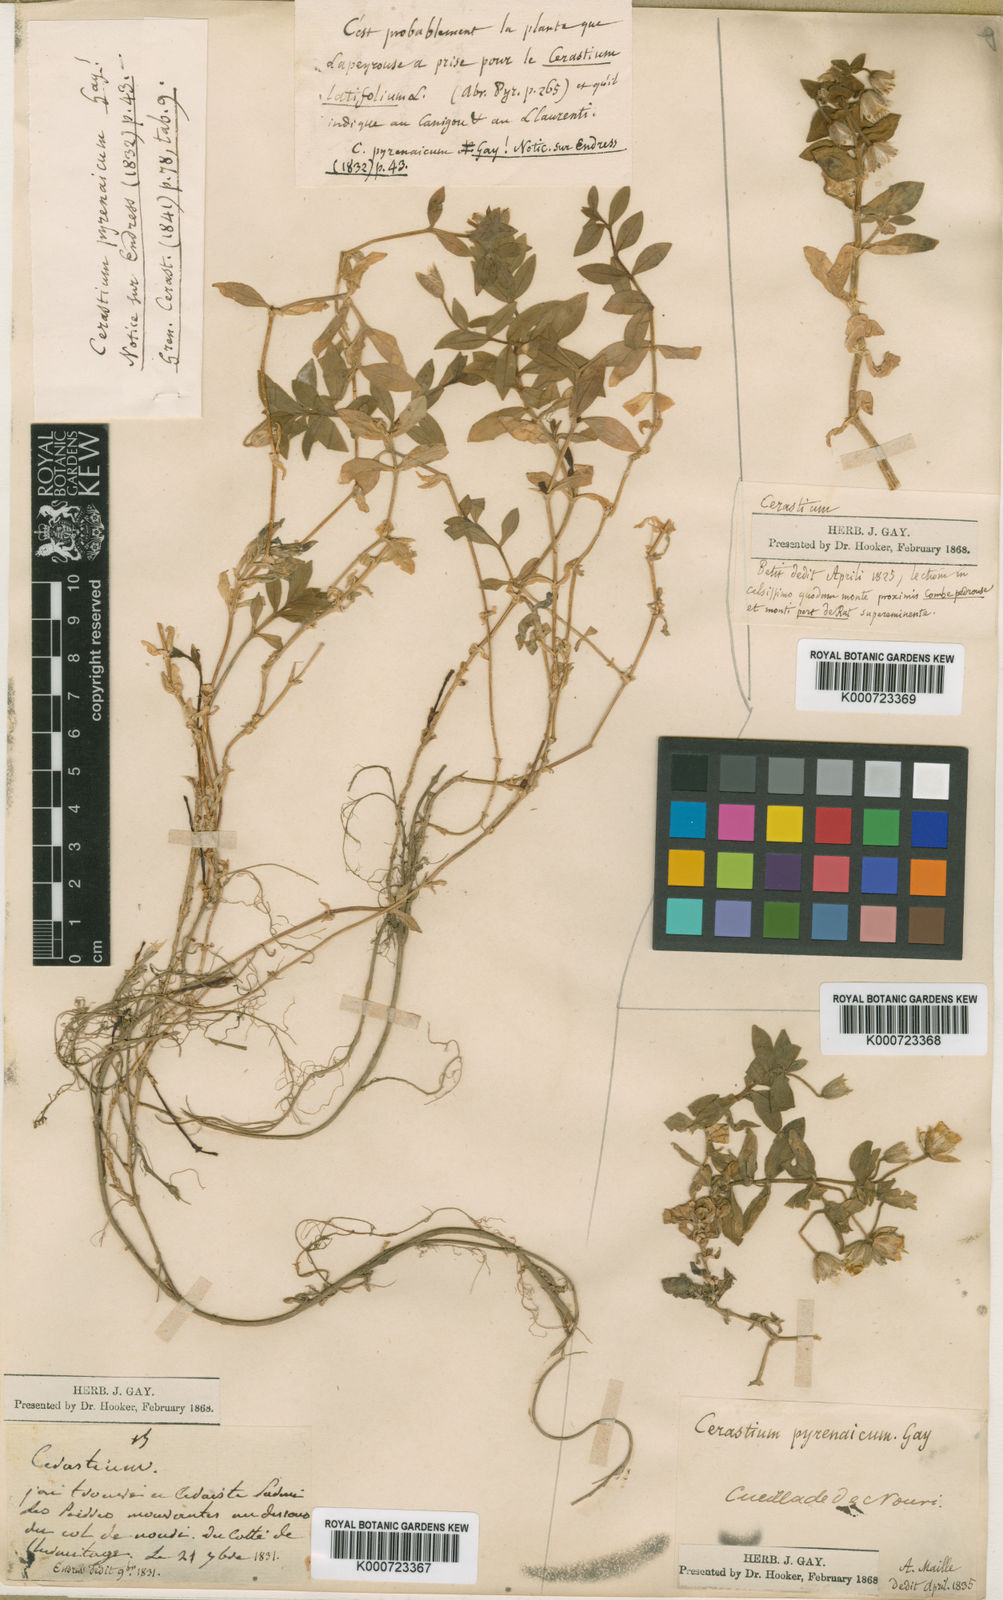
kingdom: Plantae
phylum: Tracheophyta
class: Magnoliopsida
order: Caryophyllales
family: Caryophyllaceae
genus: Cerastium
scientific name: Cerastium pyrenaicum
